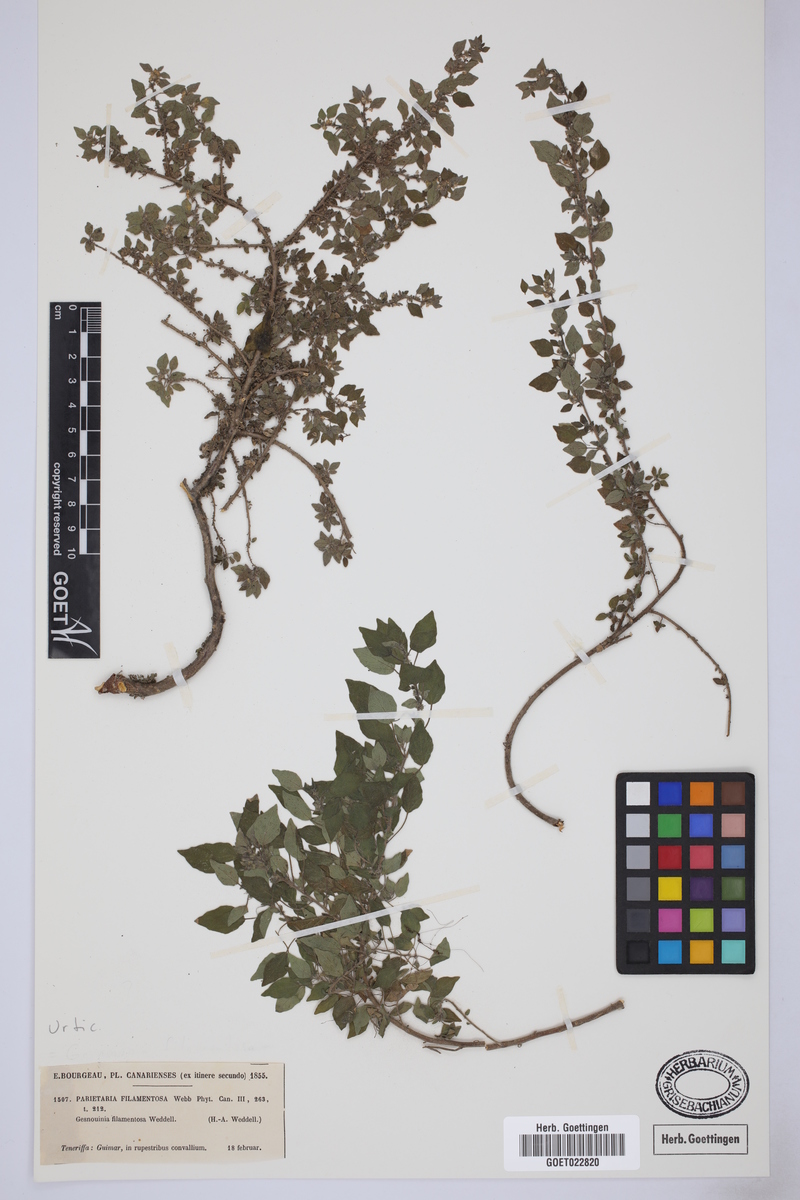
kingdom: Plantae
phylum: Tracheophyta
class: Magnoliopsida
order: Rosales
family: Urticaceae
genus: Parietaria
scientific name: Parietaria filamentosa
